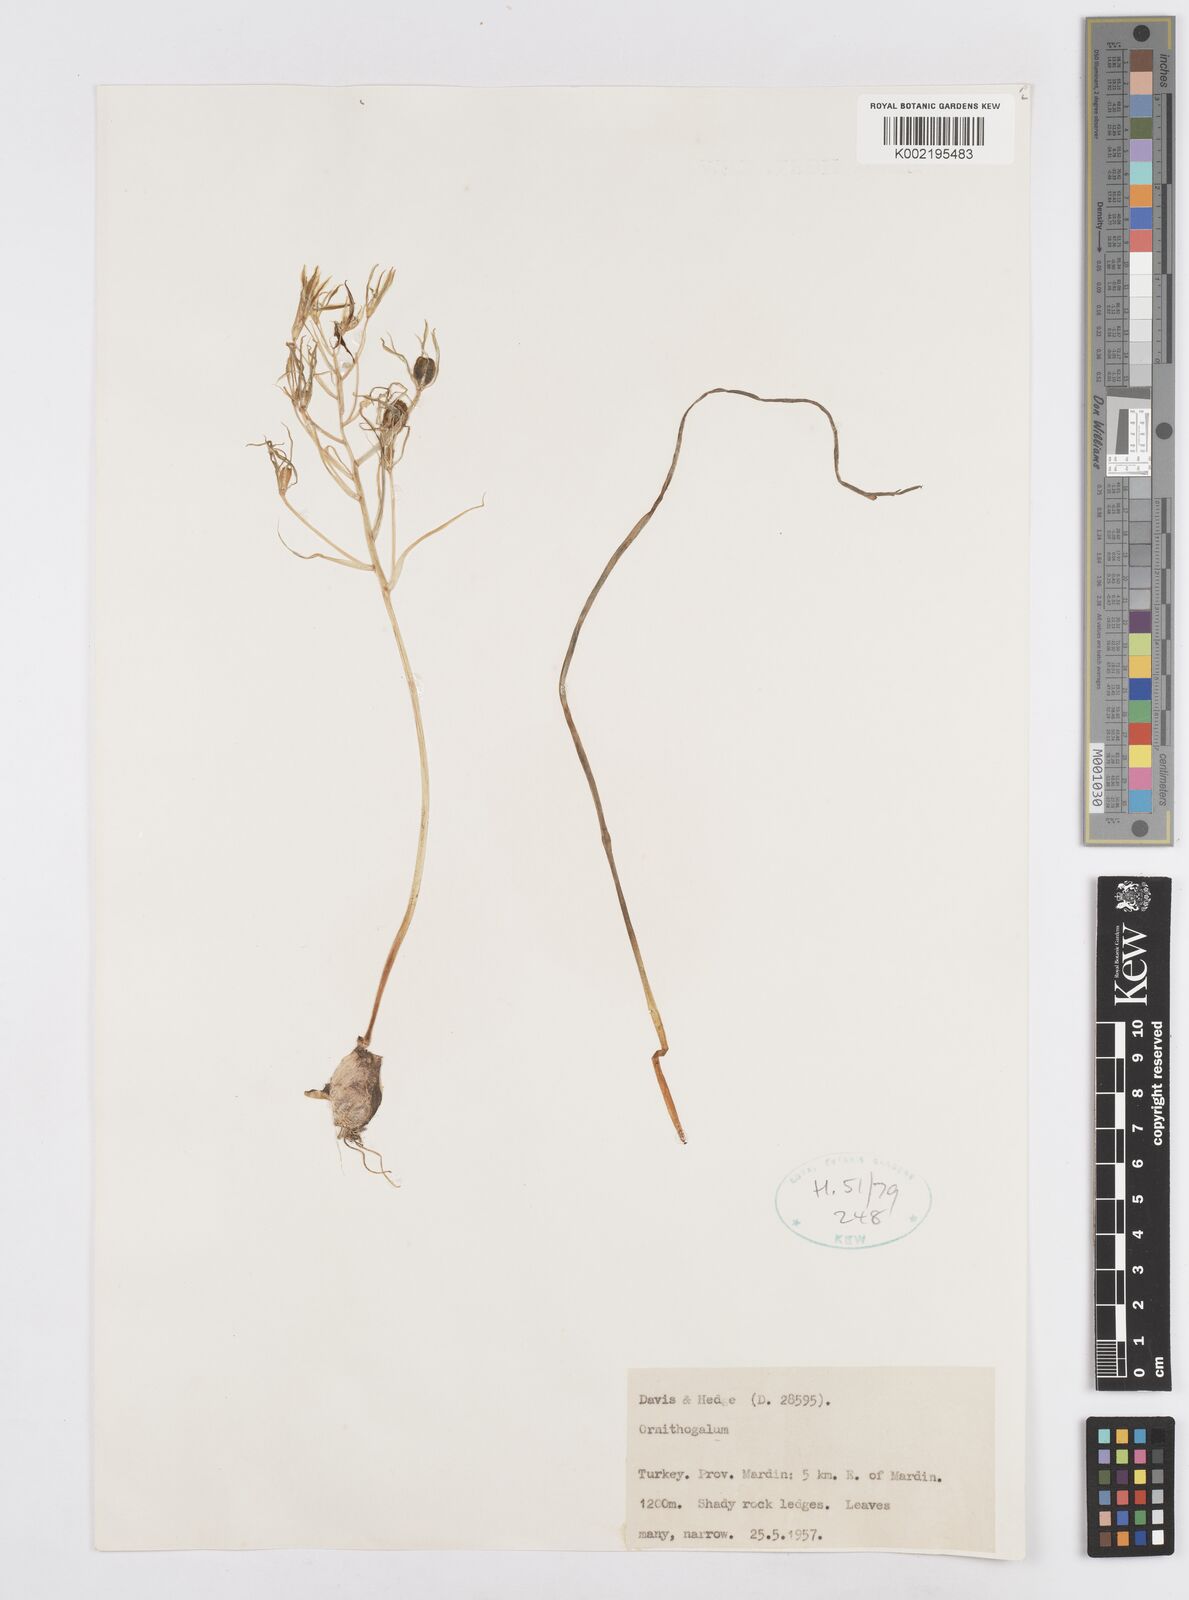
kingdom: Plantae
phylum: Tracheophyta
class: Liliopsida
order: Asparagales
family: Asparagaceae
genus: Ornithogalum
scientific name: Ornithogalum
